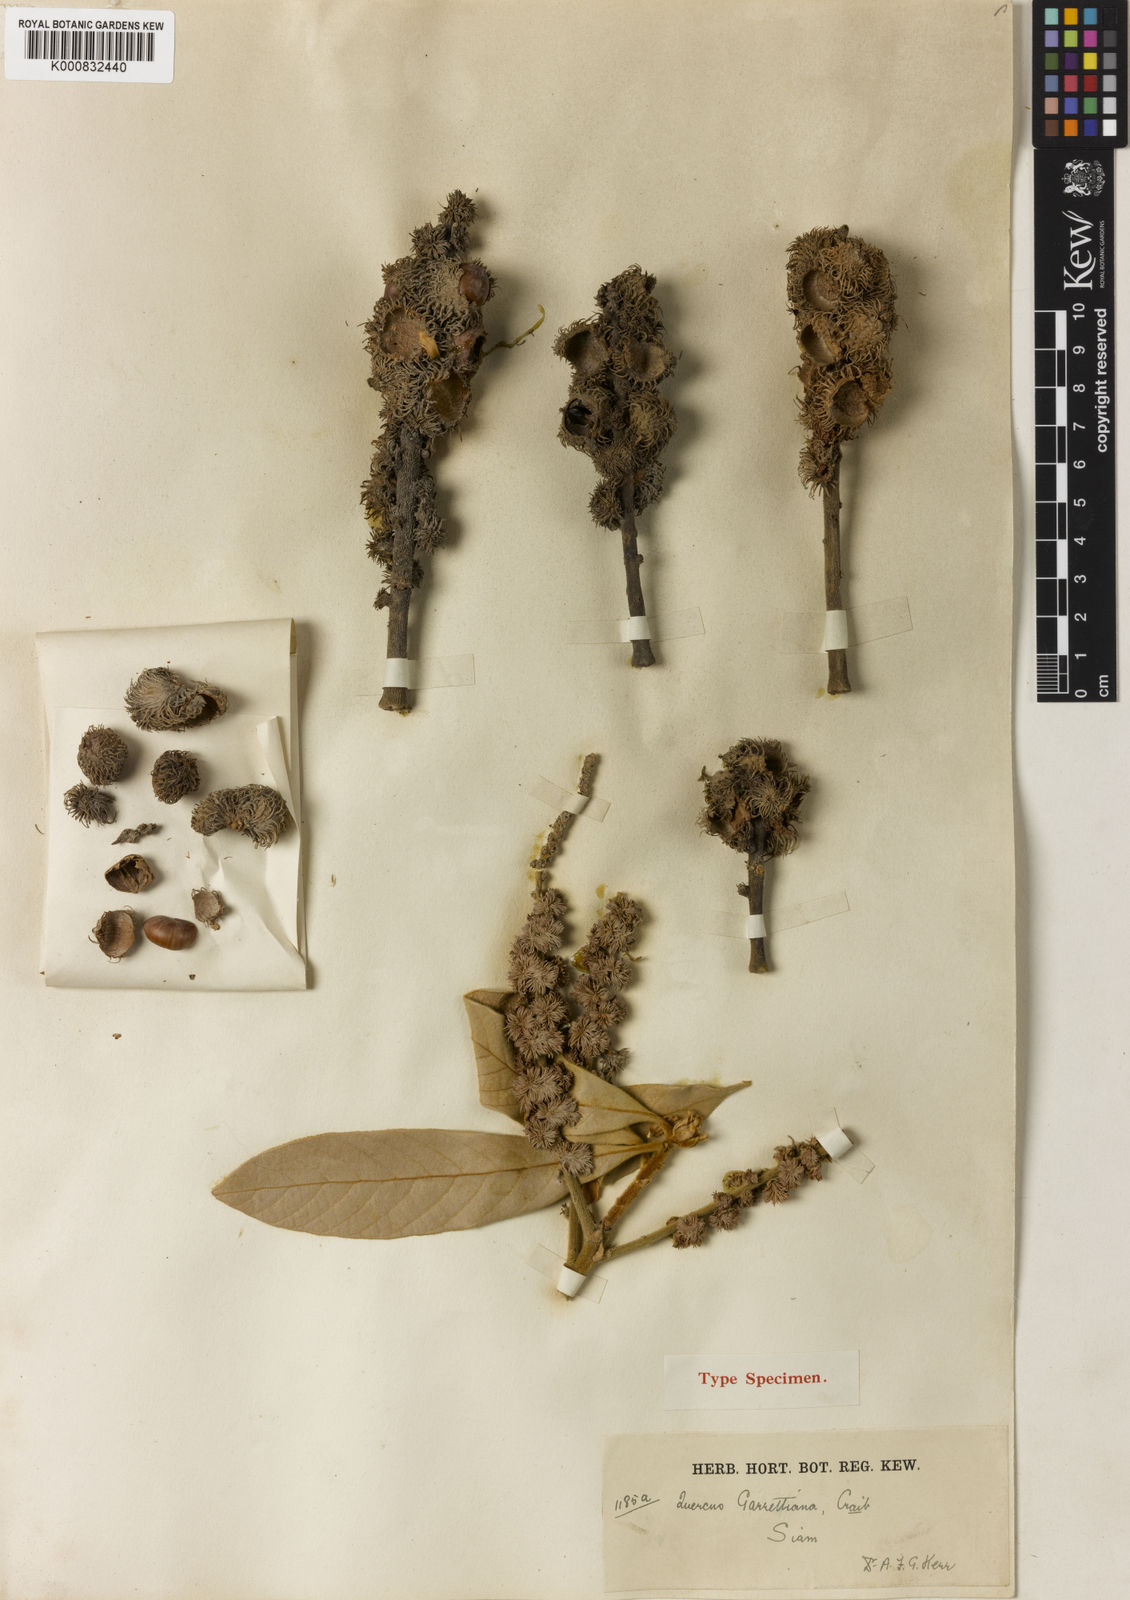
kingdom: Plantae
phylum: Tracheophyta
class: Magnoliopsida
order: Fagales
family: Fagaceae
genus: Lithocarpus
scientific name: Lithocarpus garrettianus
